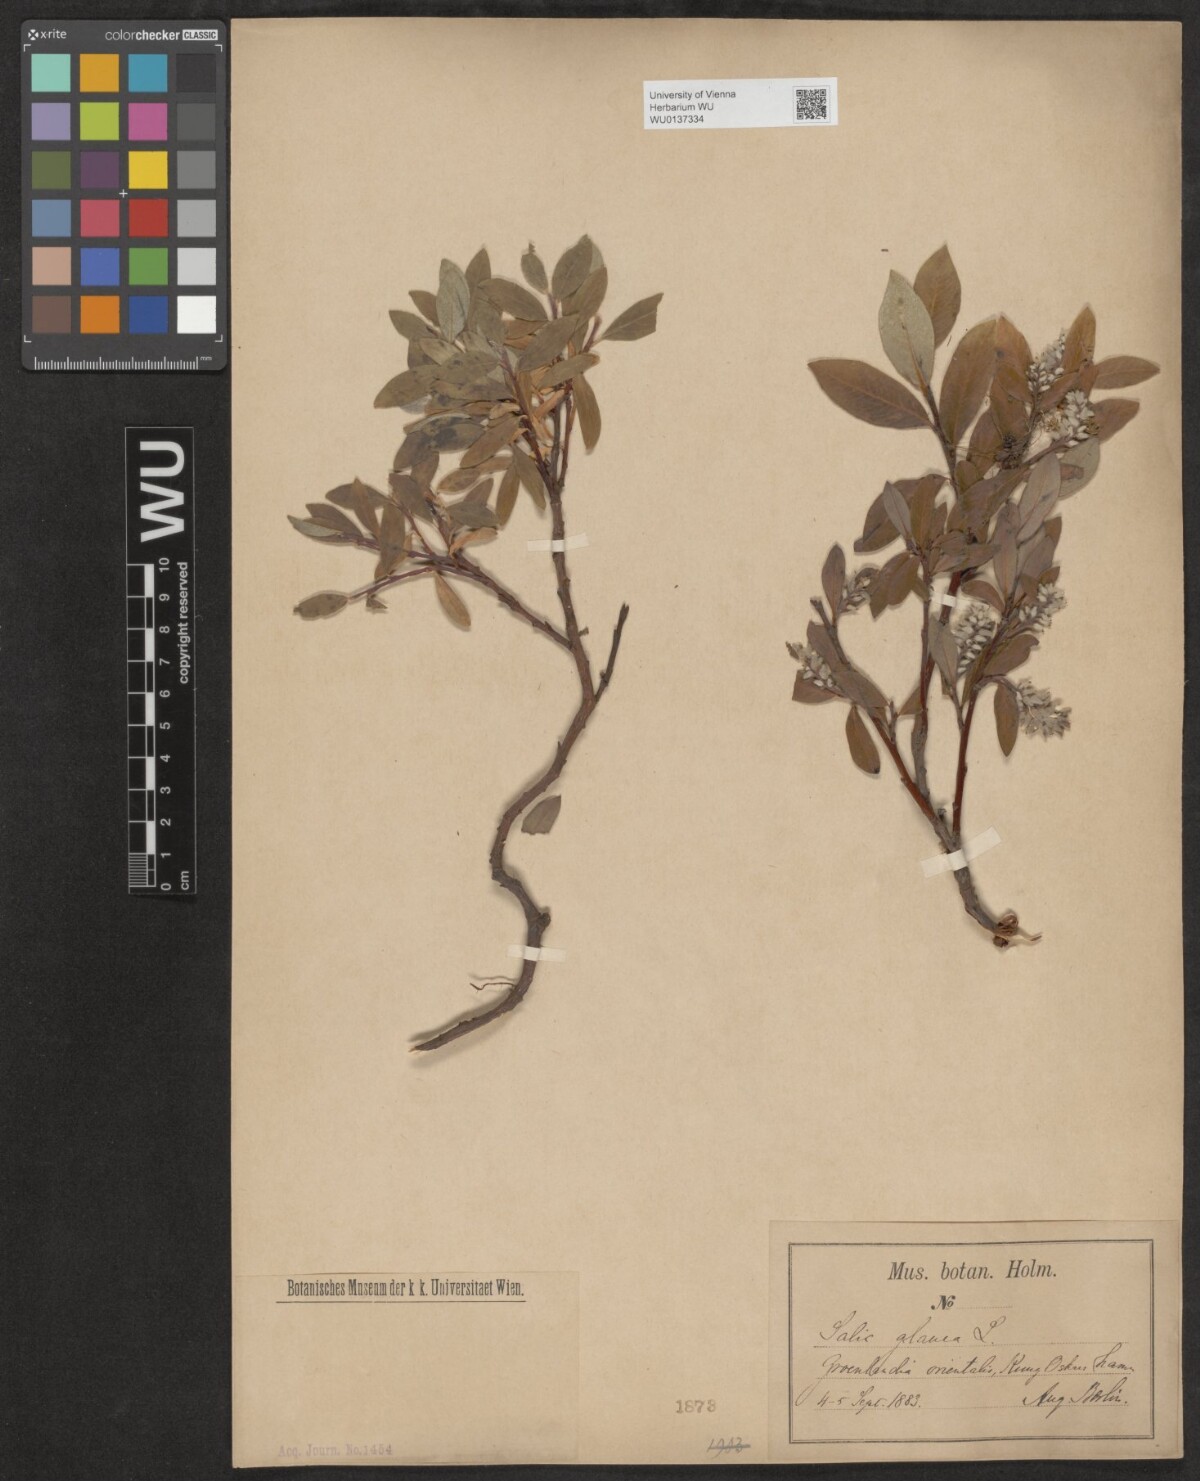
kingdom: Plantae
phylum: Tracheophyta
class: Magnoliopsida
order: Malpighiales
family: Salicaceae
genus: Salix
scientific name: Salix glauca
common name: Glaucous willow
